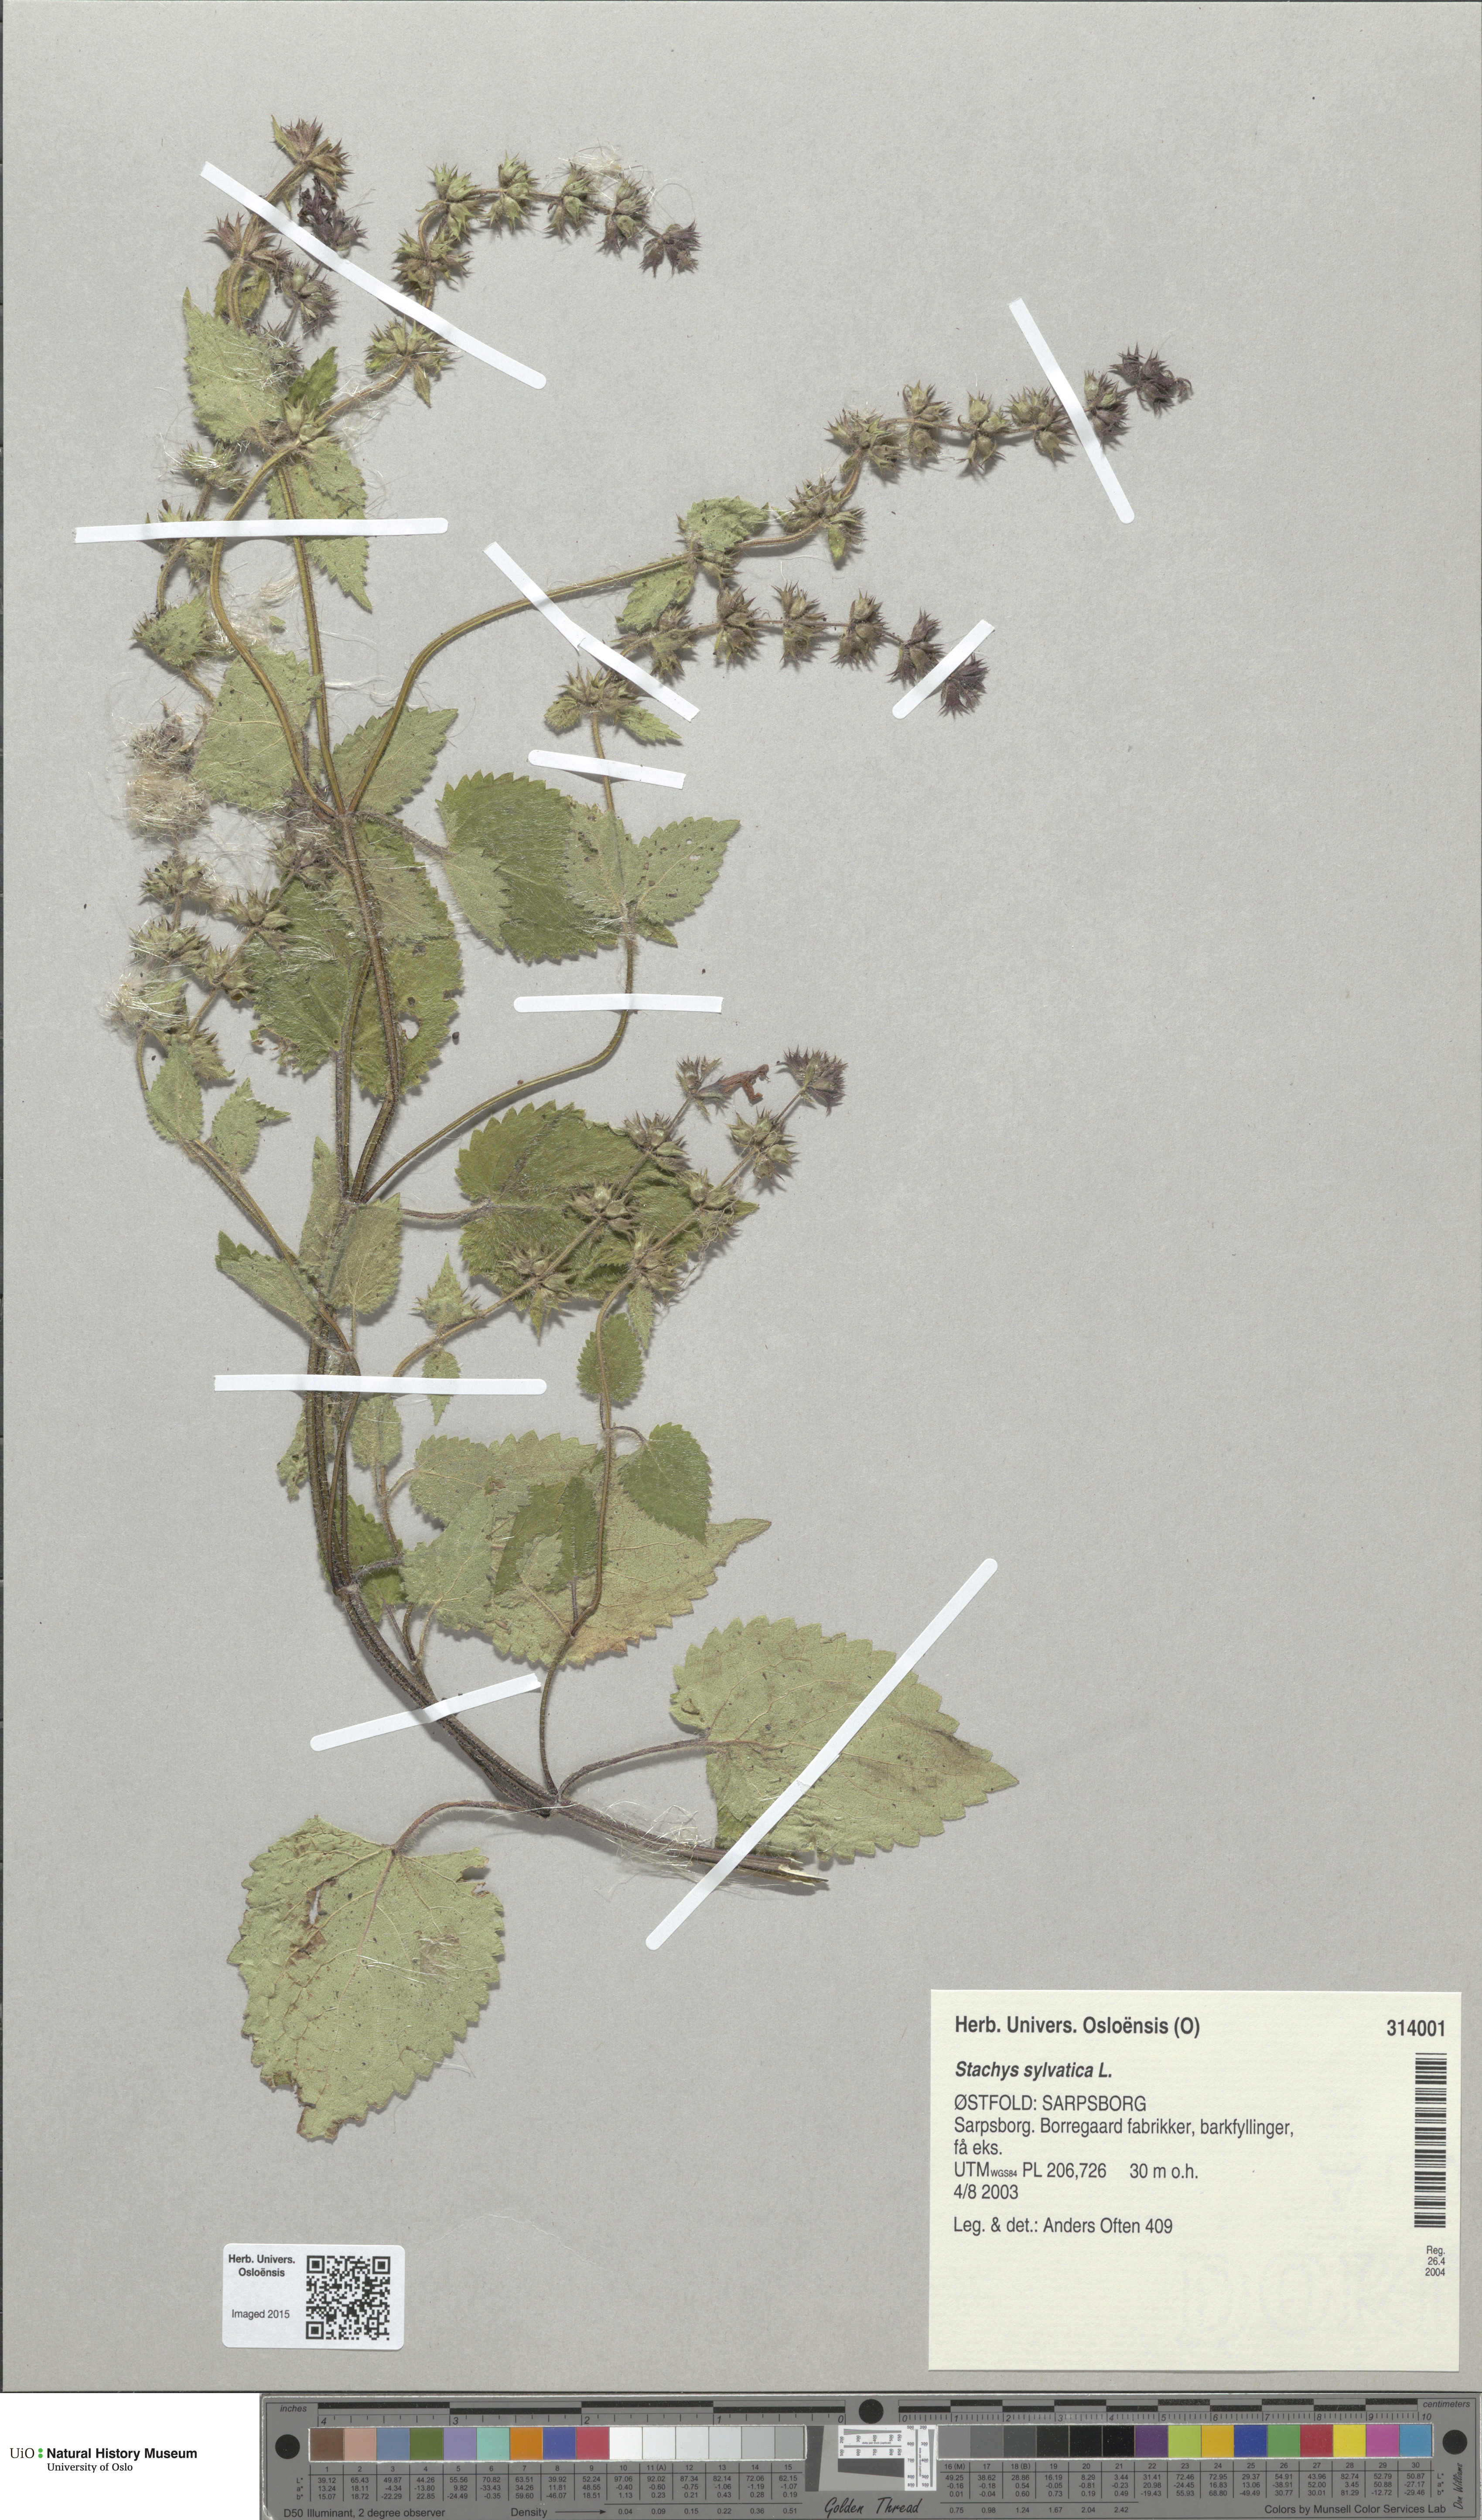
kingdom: Plantae
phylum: Tracheophyta
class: Magnoliopsida
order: Lamiales
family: Lamiaceae
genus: Stachys
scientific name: Stachys sylvatica
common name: Hedge woundwort
